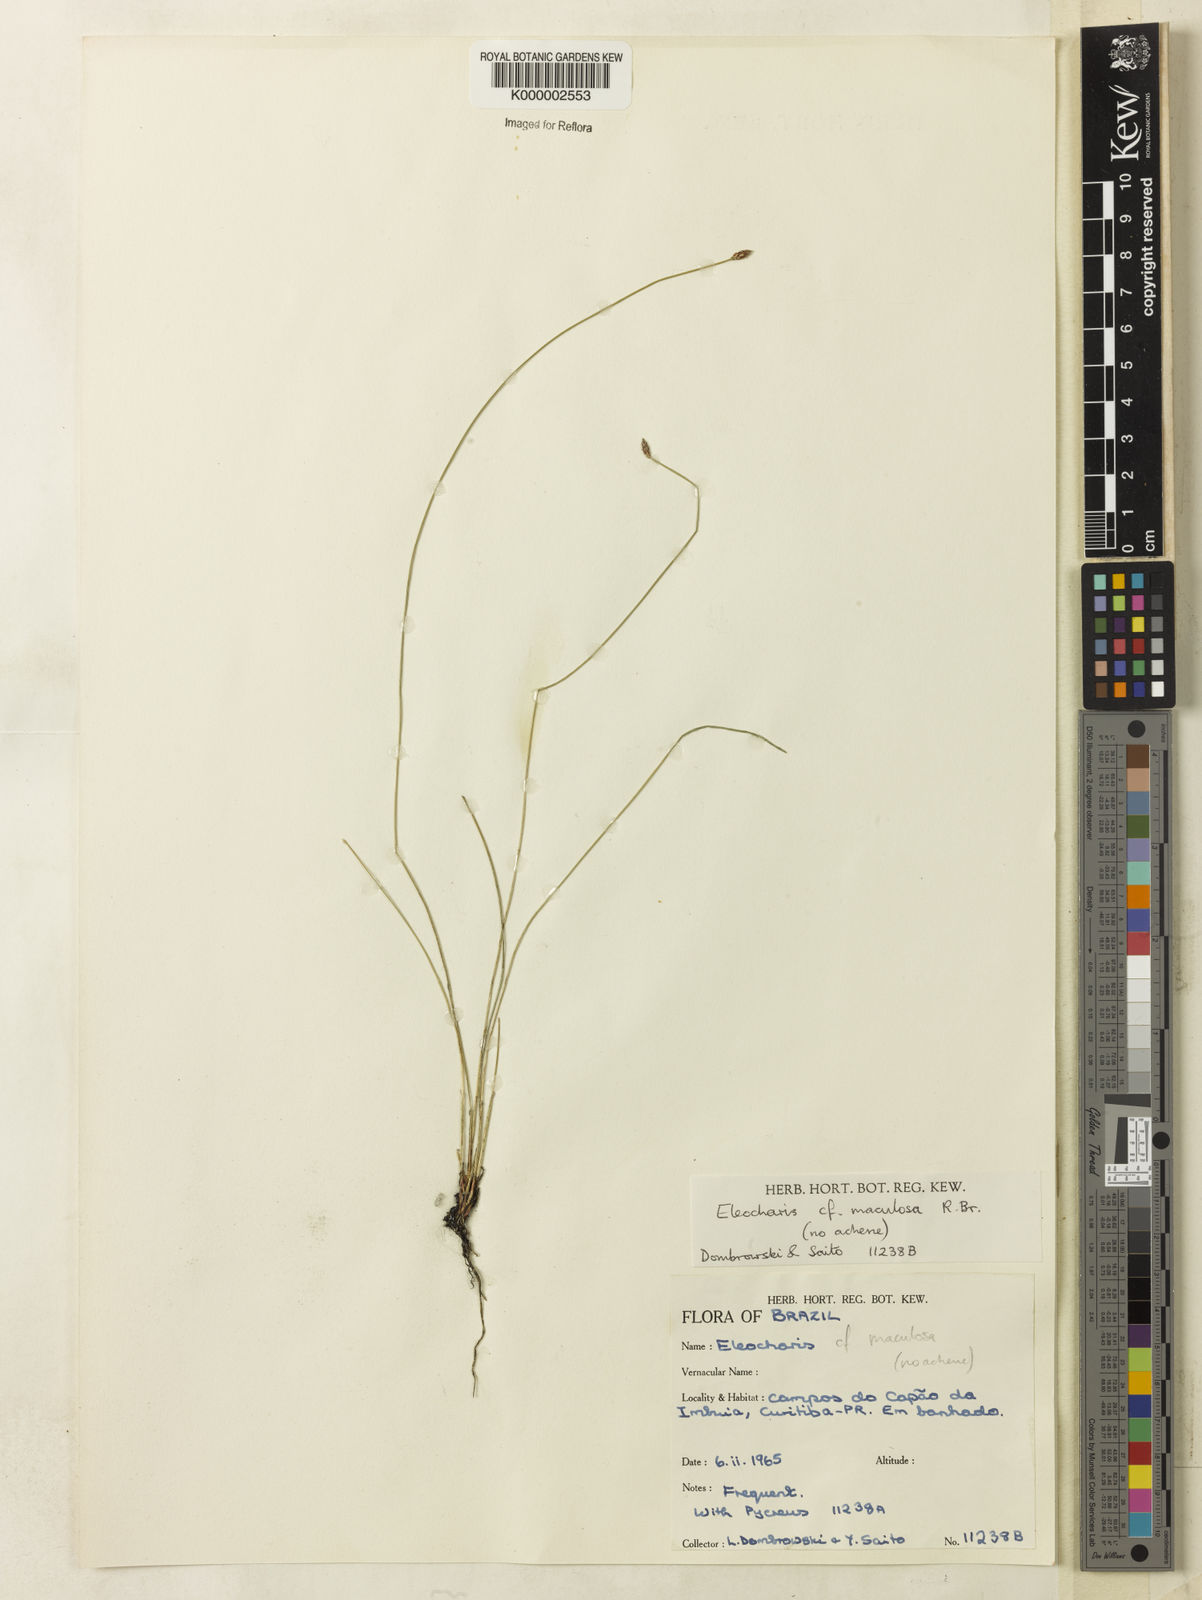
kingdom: Plantae
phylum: Tracheophyta
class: Liliopsida
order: Poales
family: Cyperaceae
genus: Eleocharis
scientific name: Eleocharis maculosa
